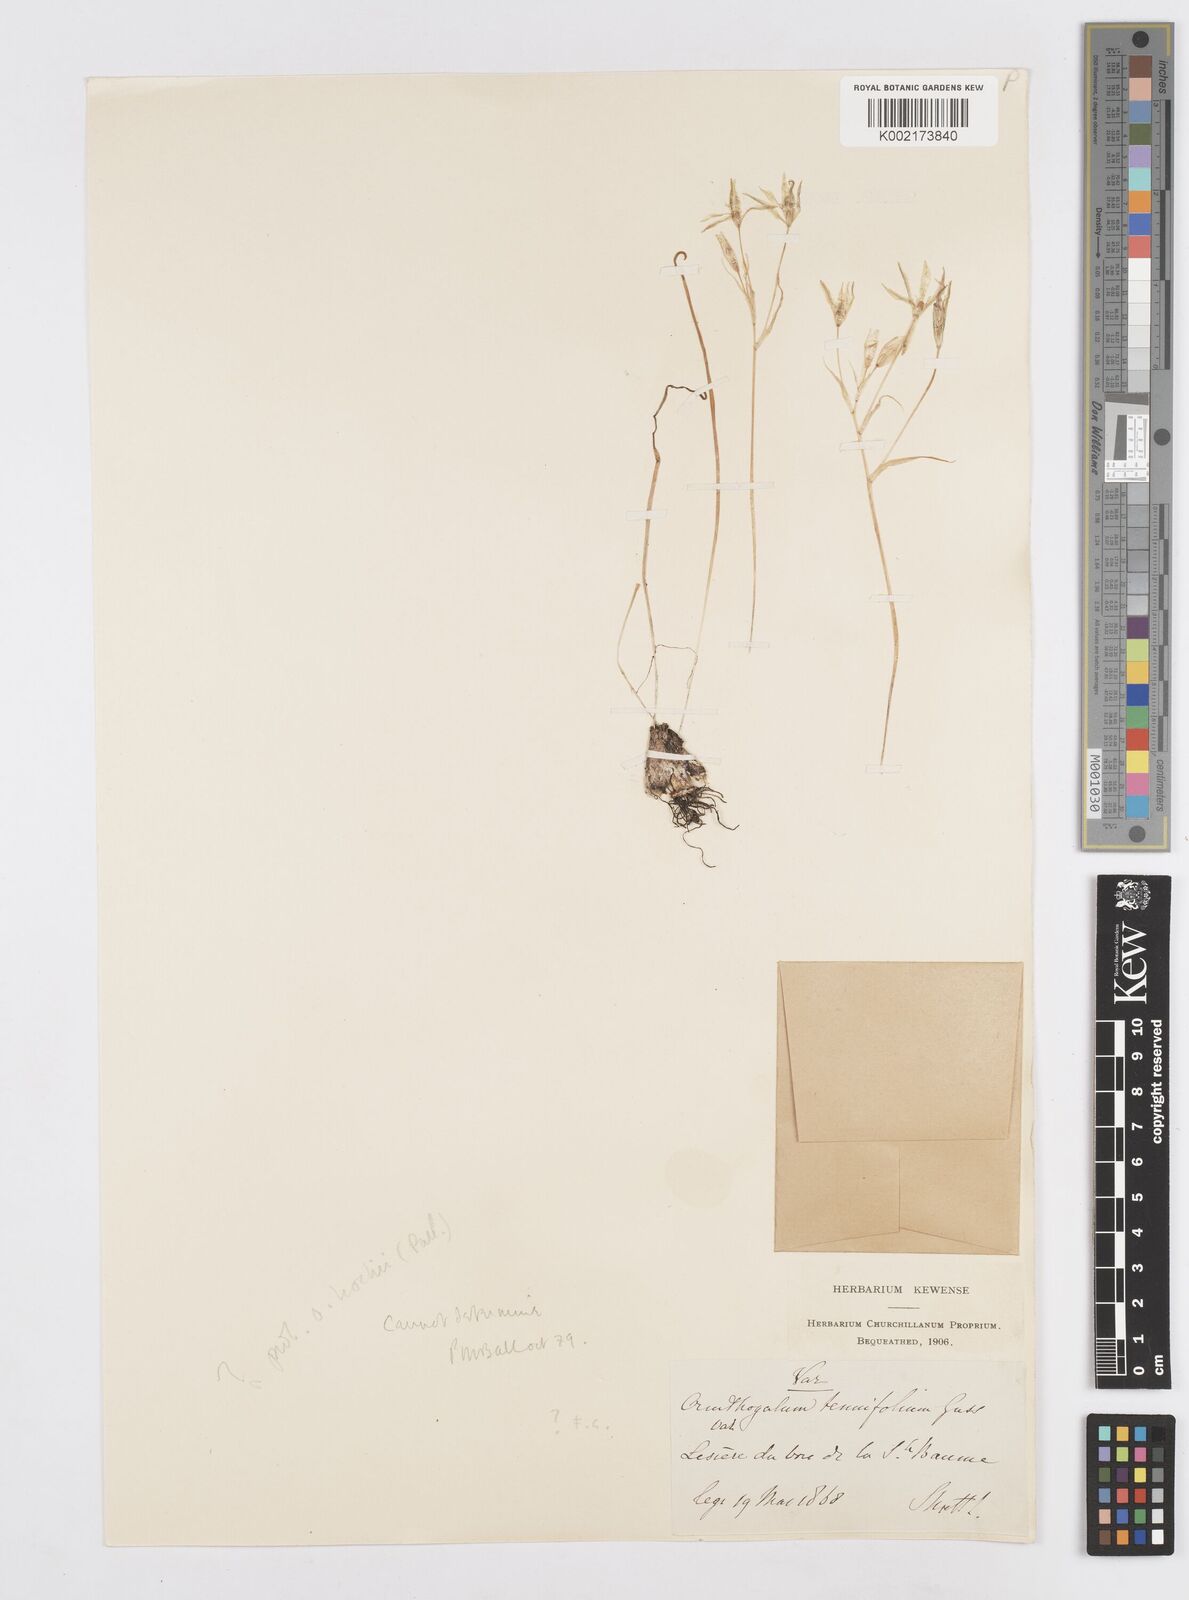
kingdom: Plantae
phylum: Tracheophyta
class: Liliopsida
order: Asparagales
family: Asparagaceae
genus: Ornithogalum
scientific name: Ornithogalum orthophyllum
